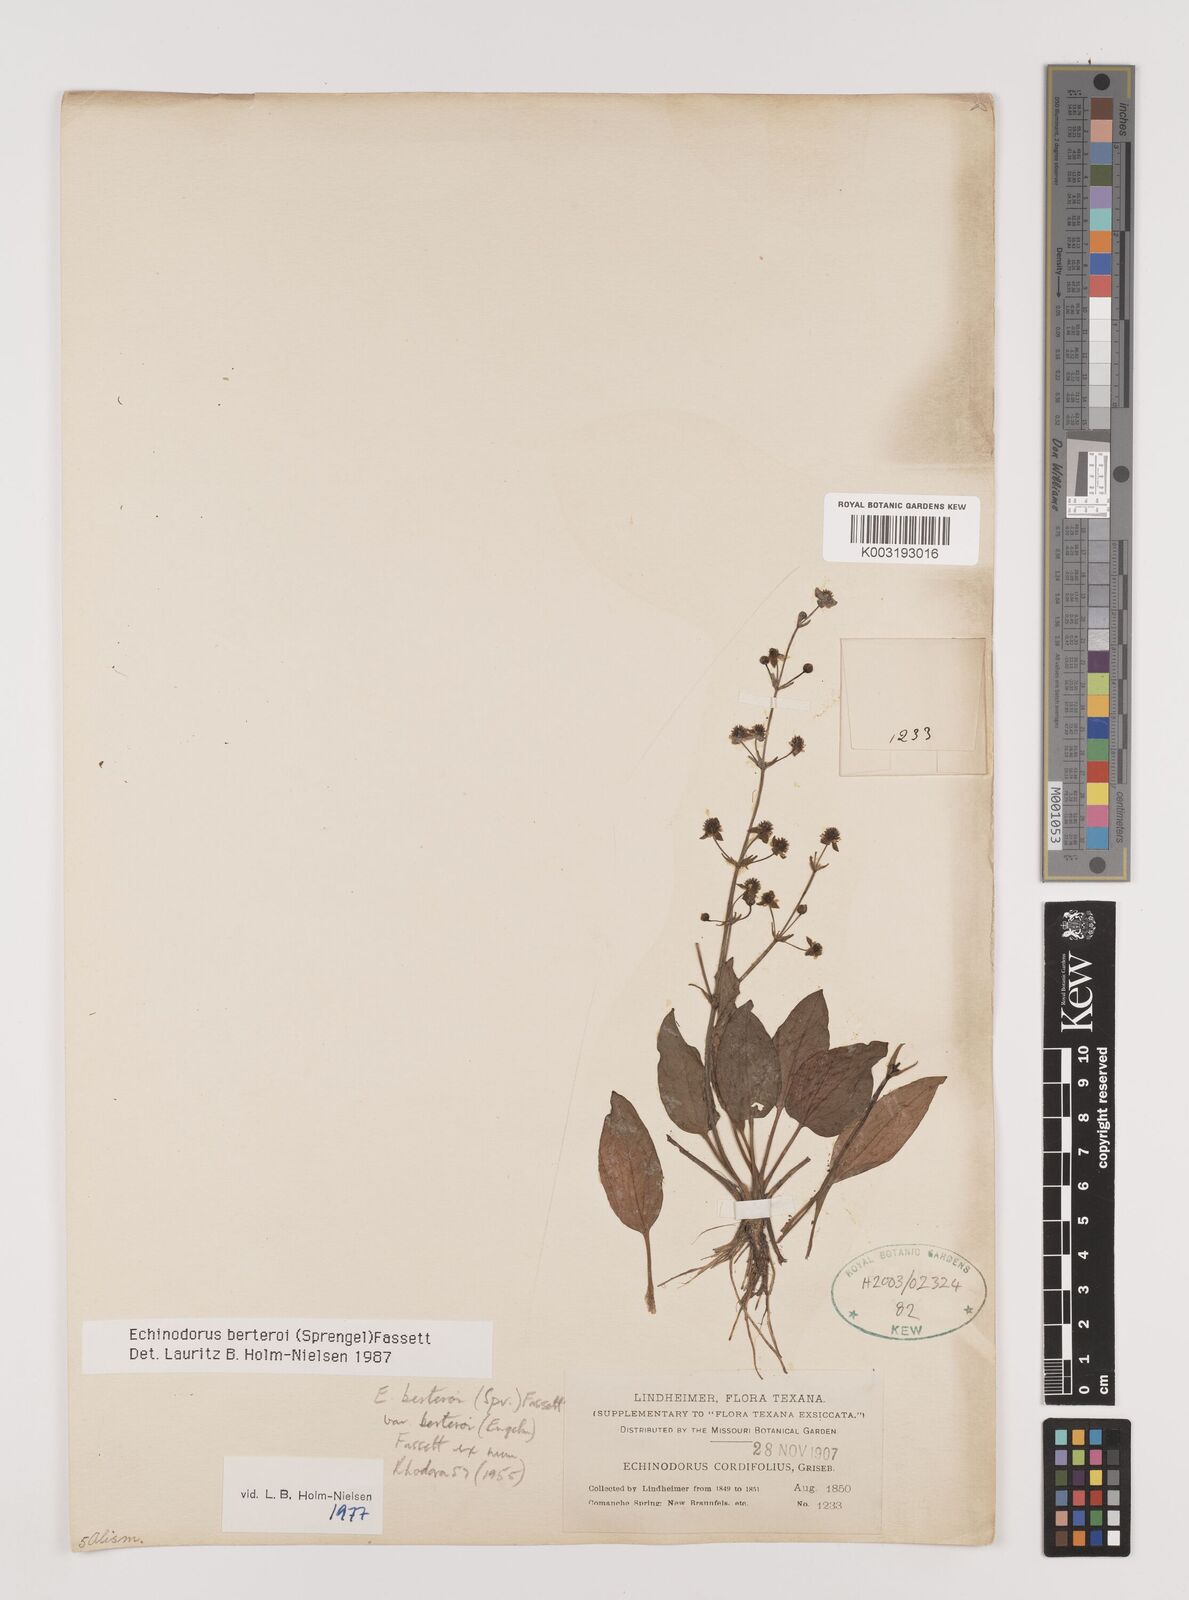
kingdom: Plantae
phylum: Tracheophyta
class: Liliopsida
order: Alismatales
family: Alismataceae
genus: Echinodorus
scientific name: Echinodorus berteroi
